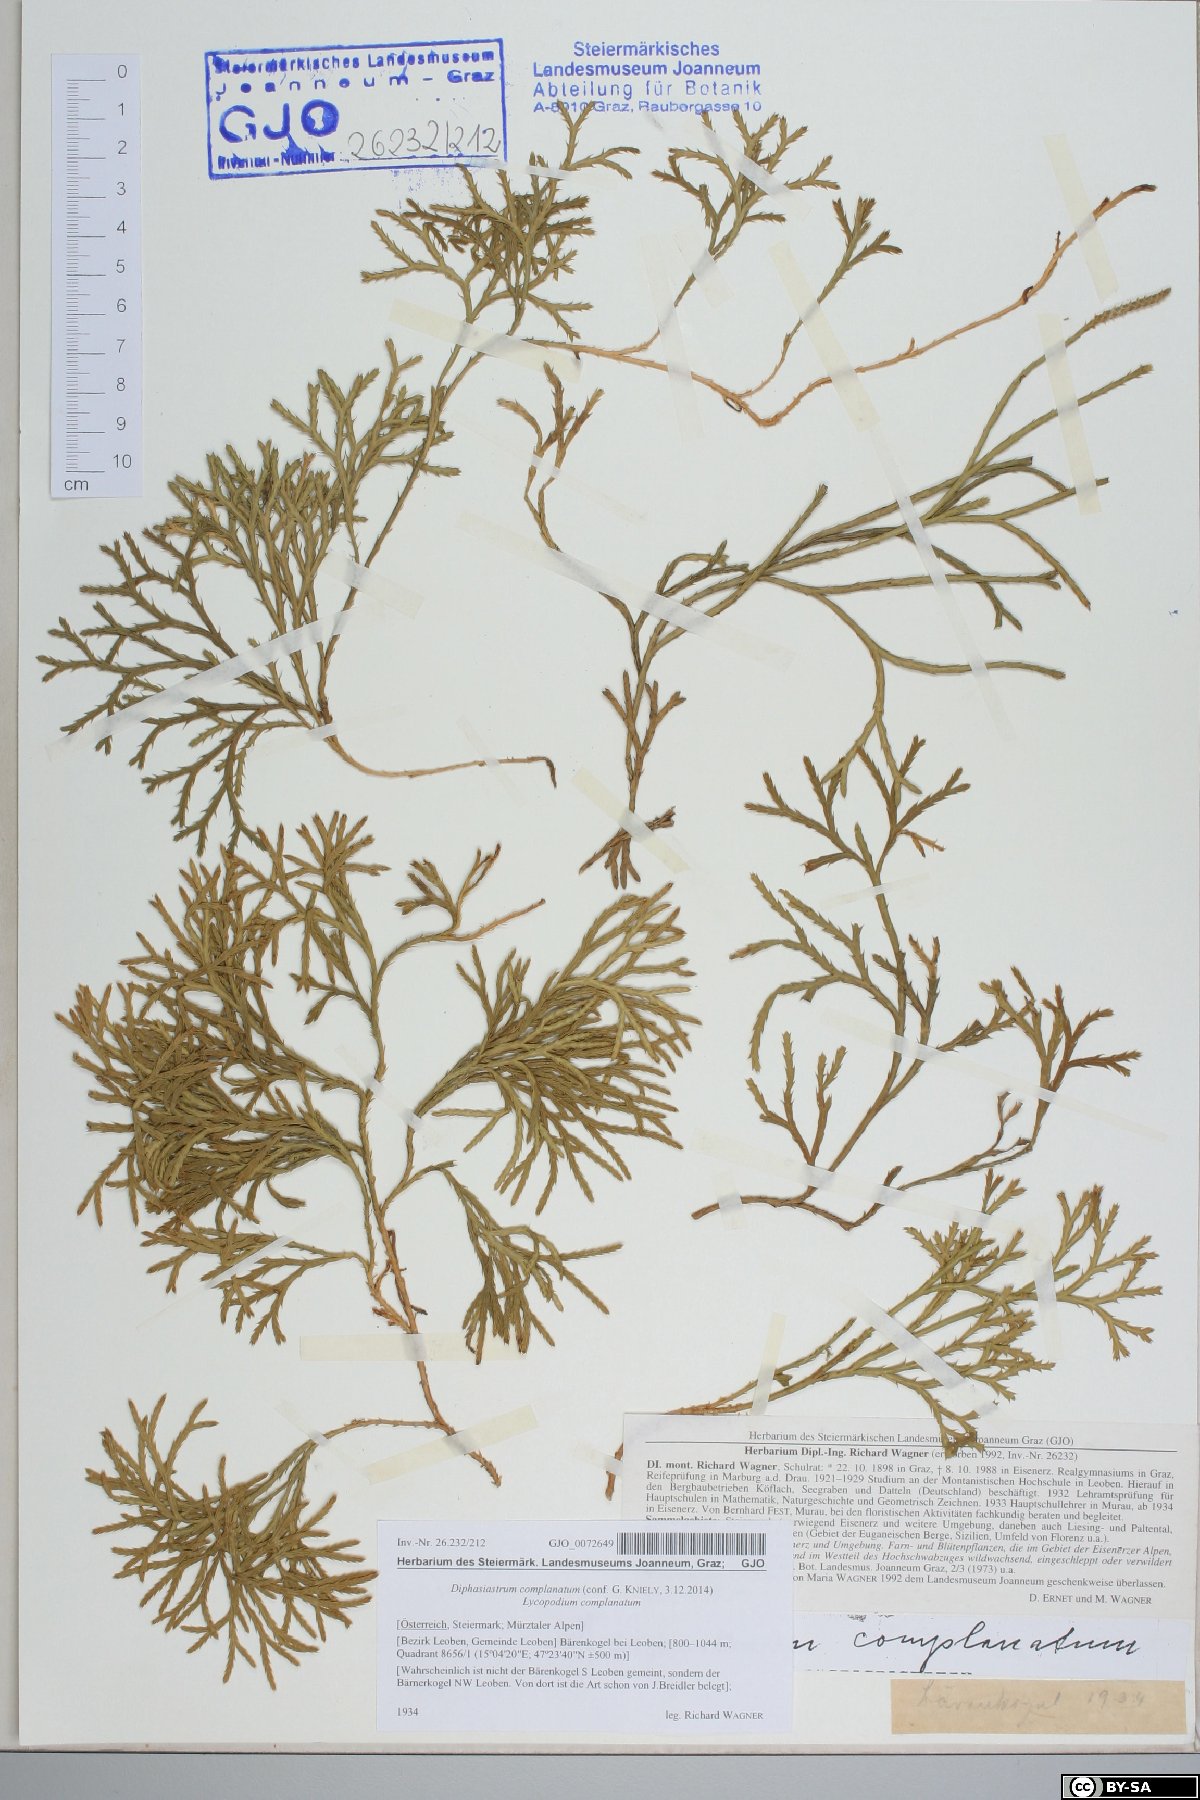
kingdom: Plantae
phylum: Tracheophyta
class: Lycopodiopsida
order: Lycopodiales
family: Lycopodiaceae
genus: Diphasiastrum
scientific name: Diphasiastrum complanatum
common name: Northern running-pine
